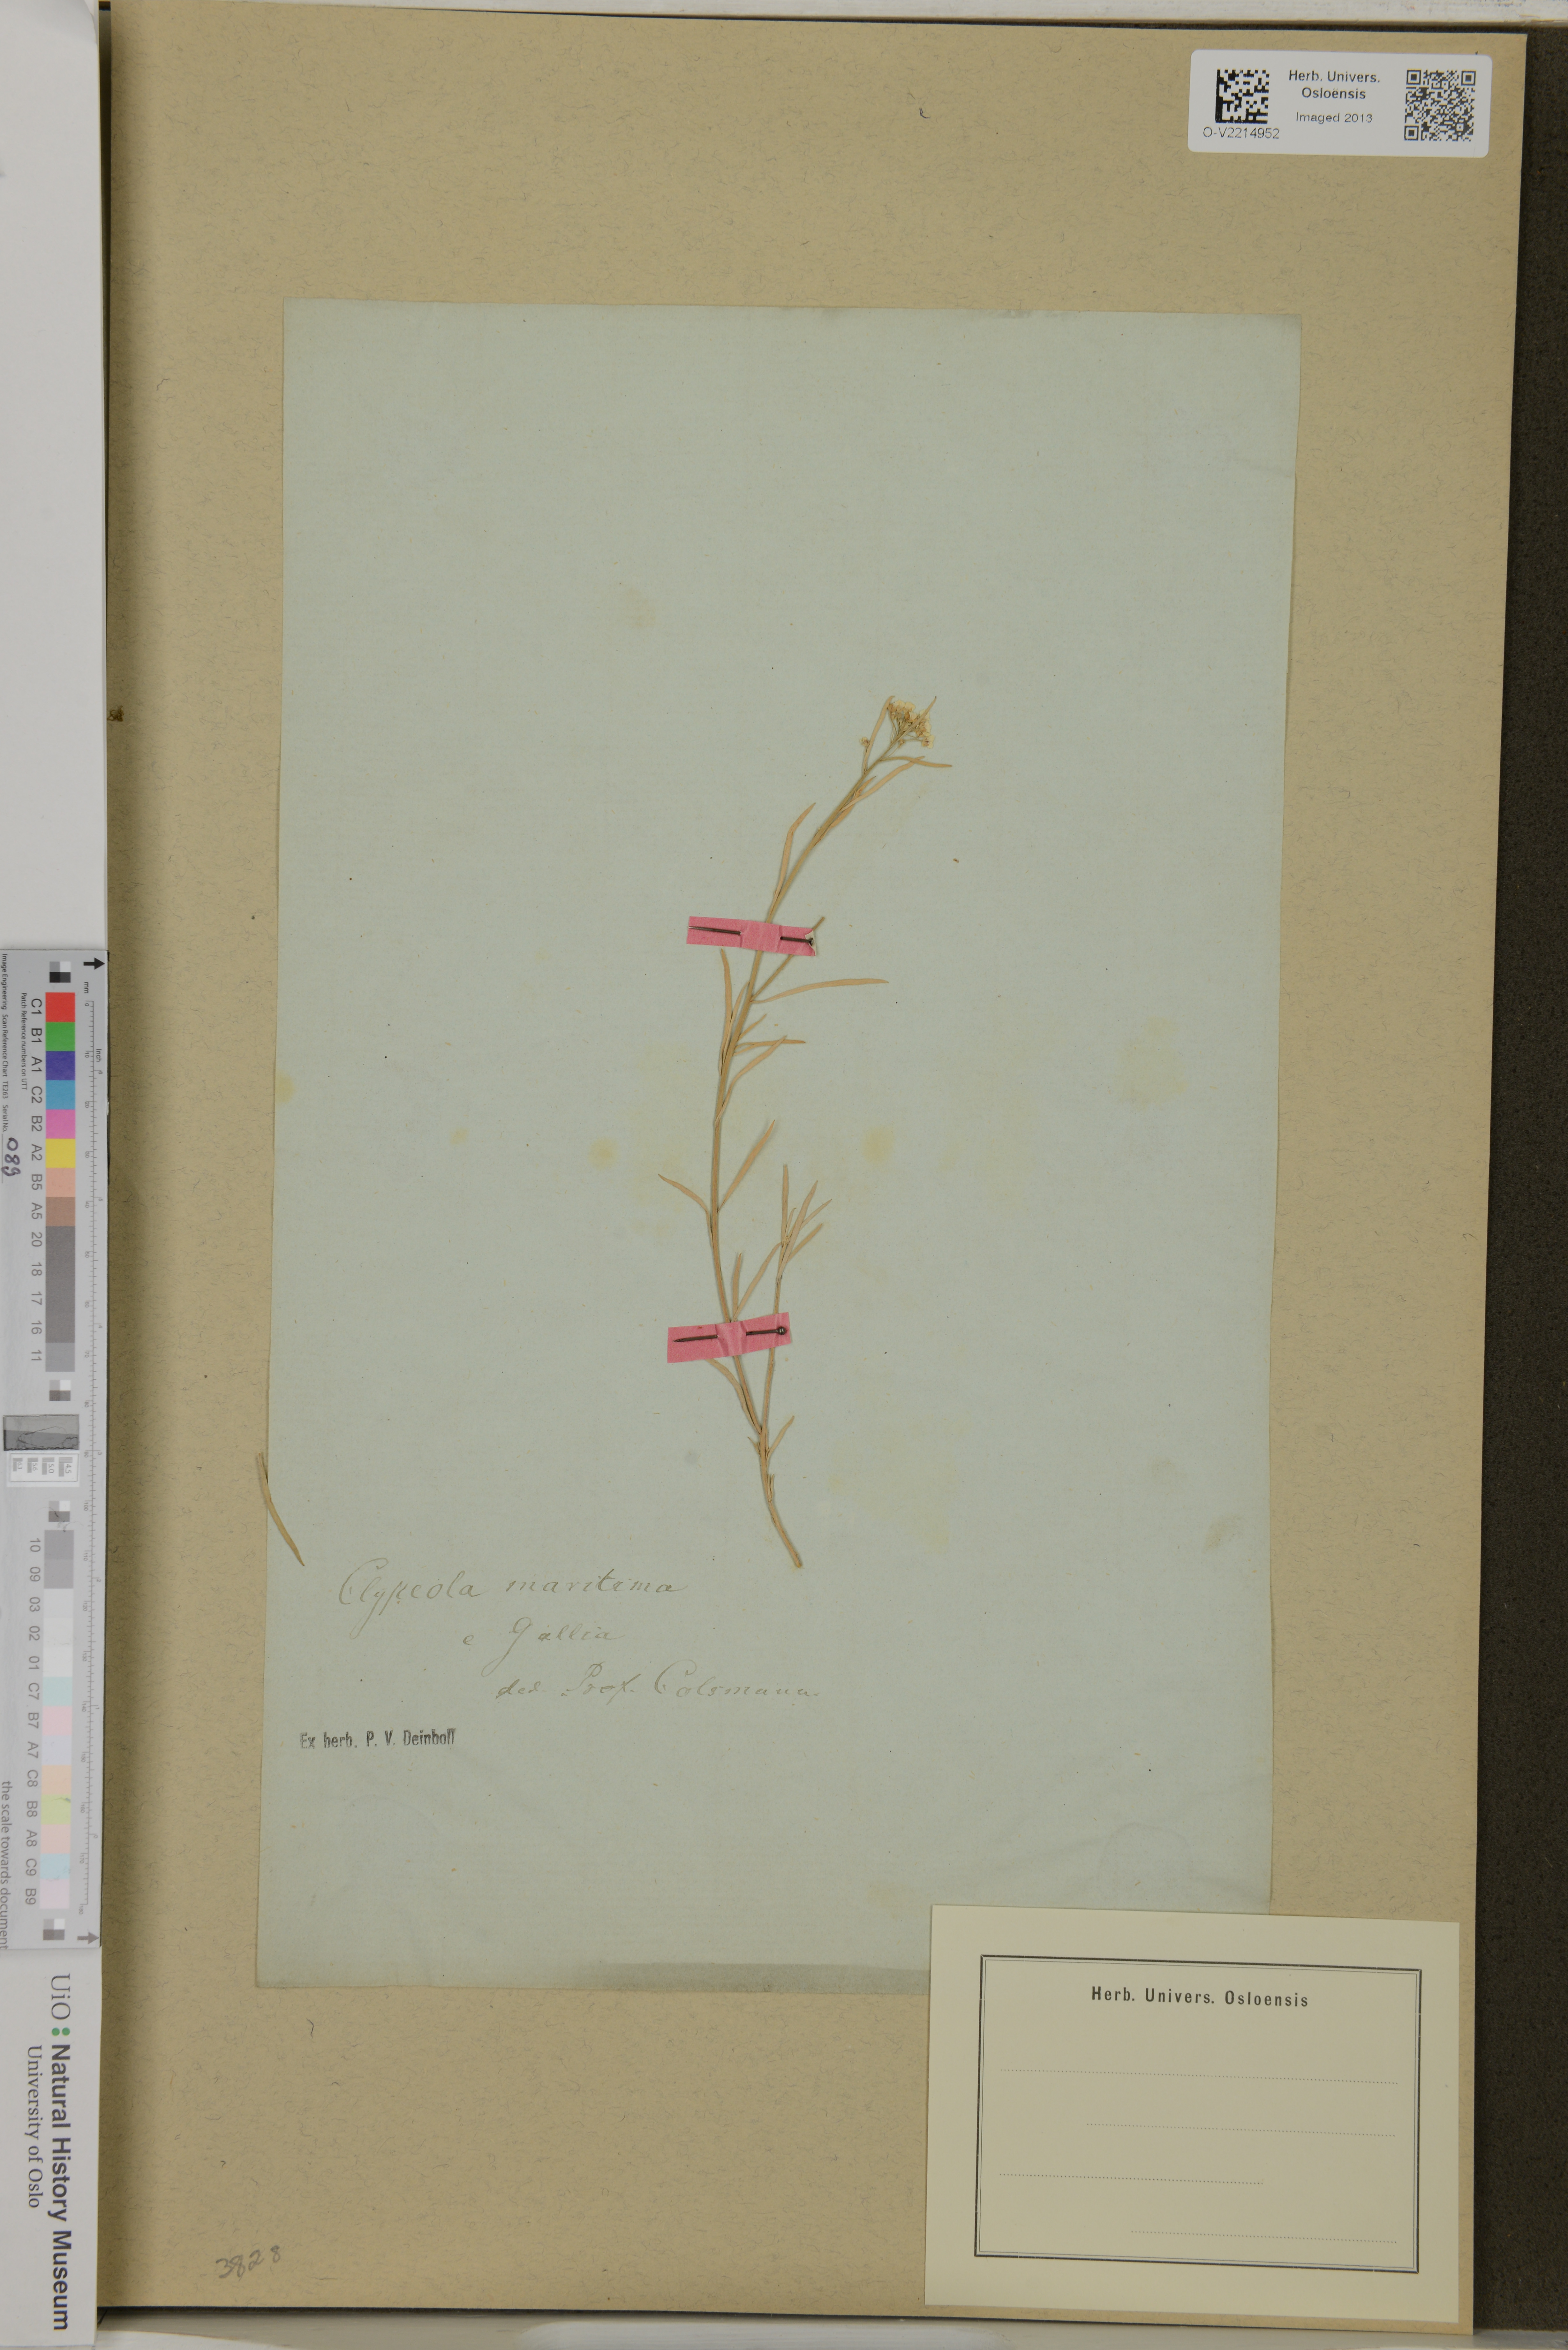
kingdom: Plantae
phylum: Tracheophyta
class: Magnoliopsida
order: Brassicales
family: Brassicaceae
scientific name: Brassicaceae
